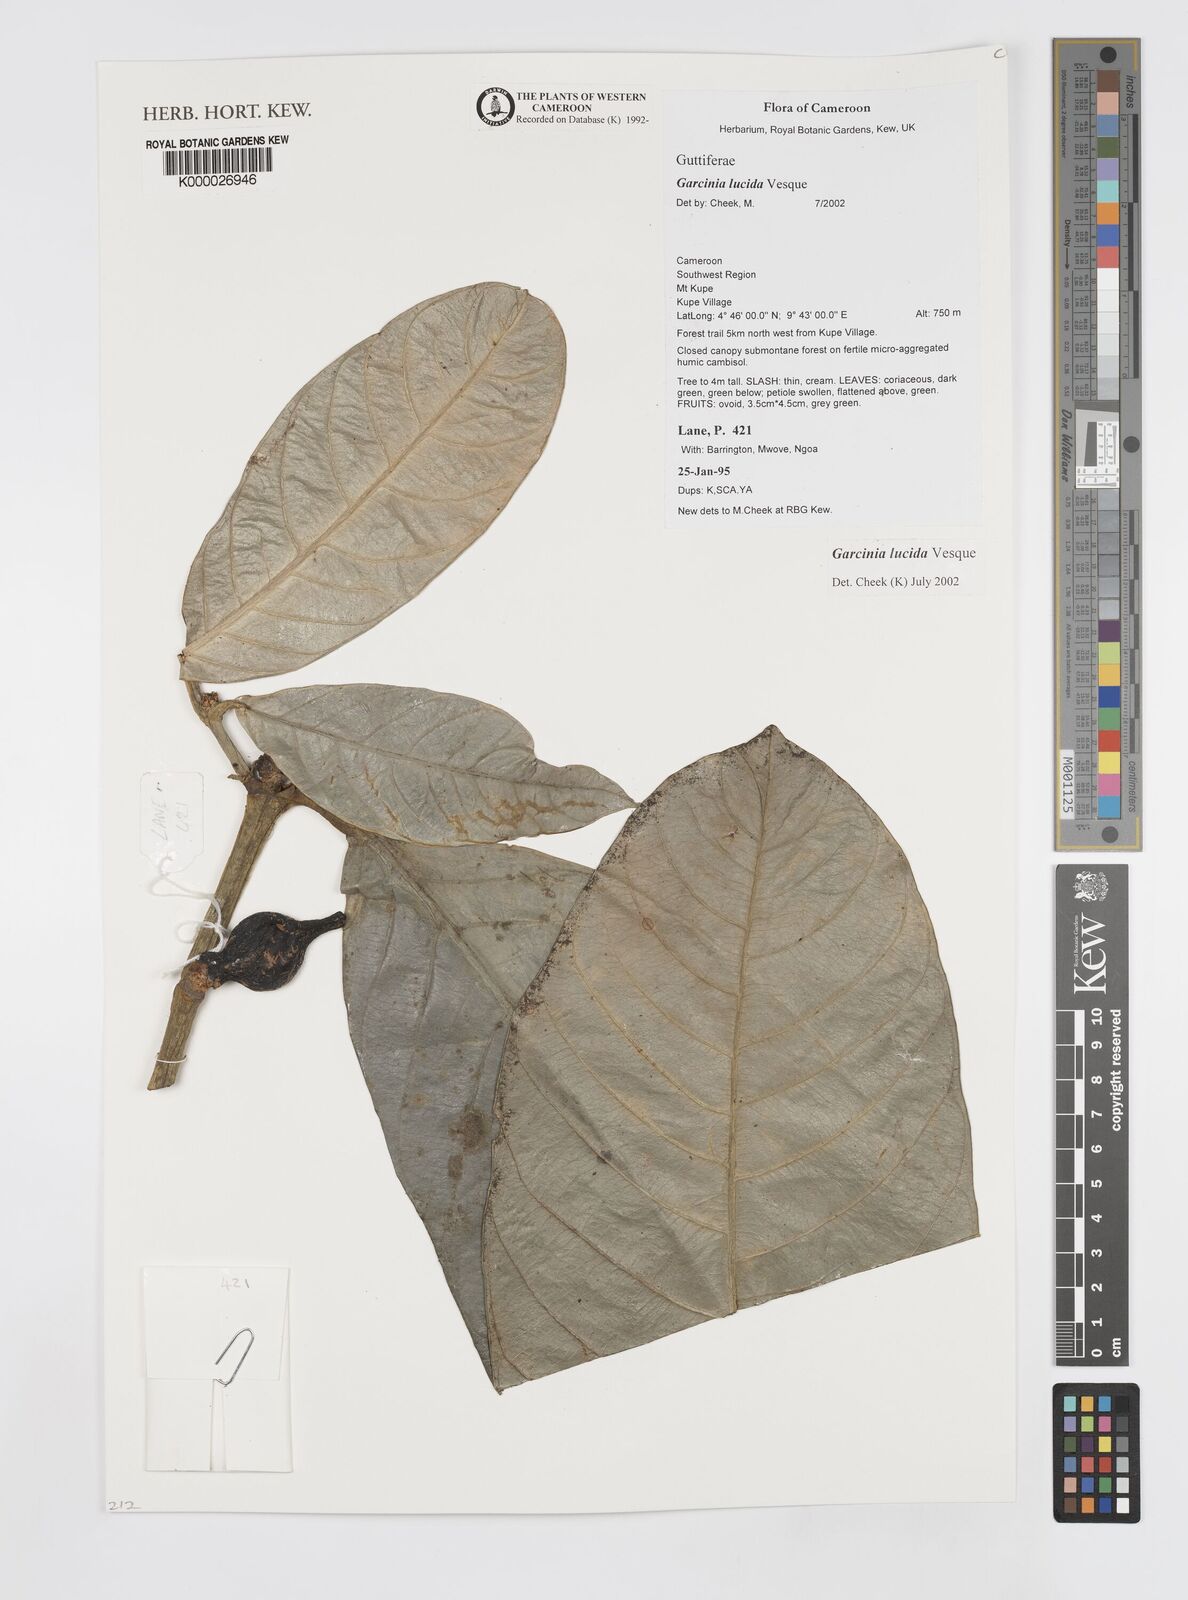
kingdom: Plantae
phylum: Tracheophyta
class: Magnoliopsida
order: Malpighiales
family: Clusiaceae
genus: Garcinia
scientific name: Garcinia lucida
